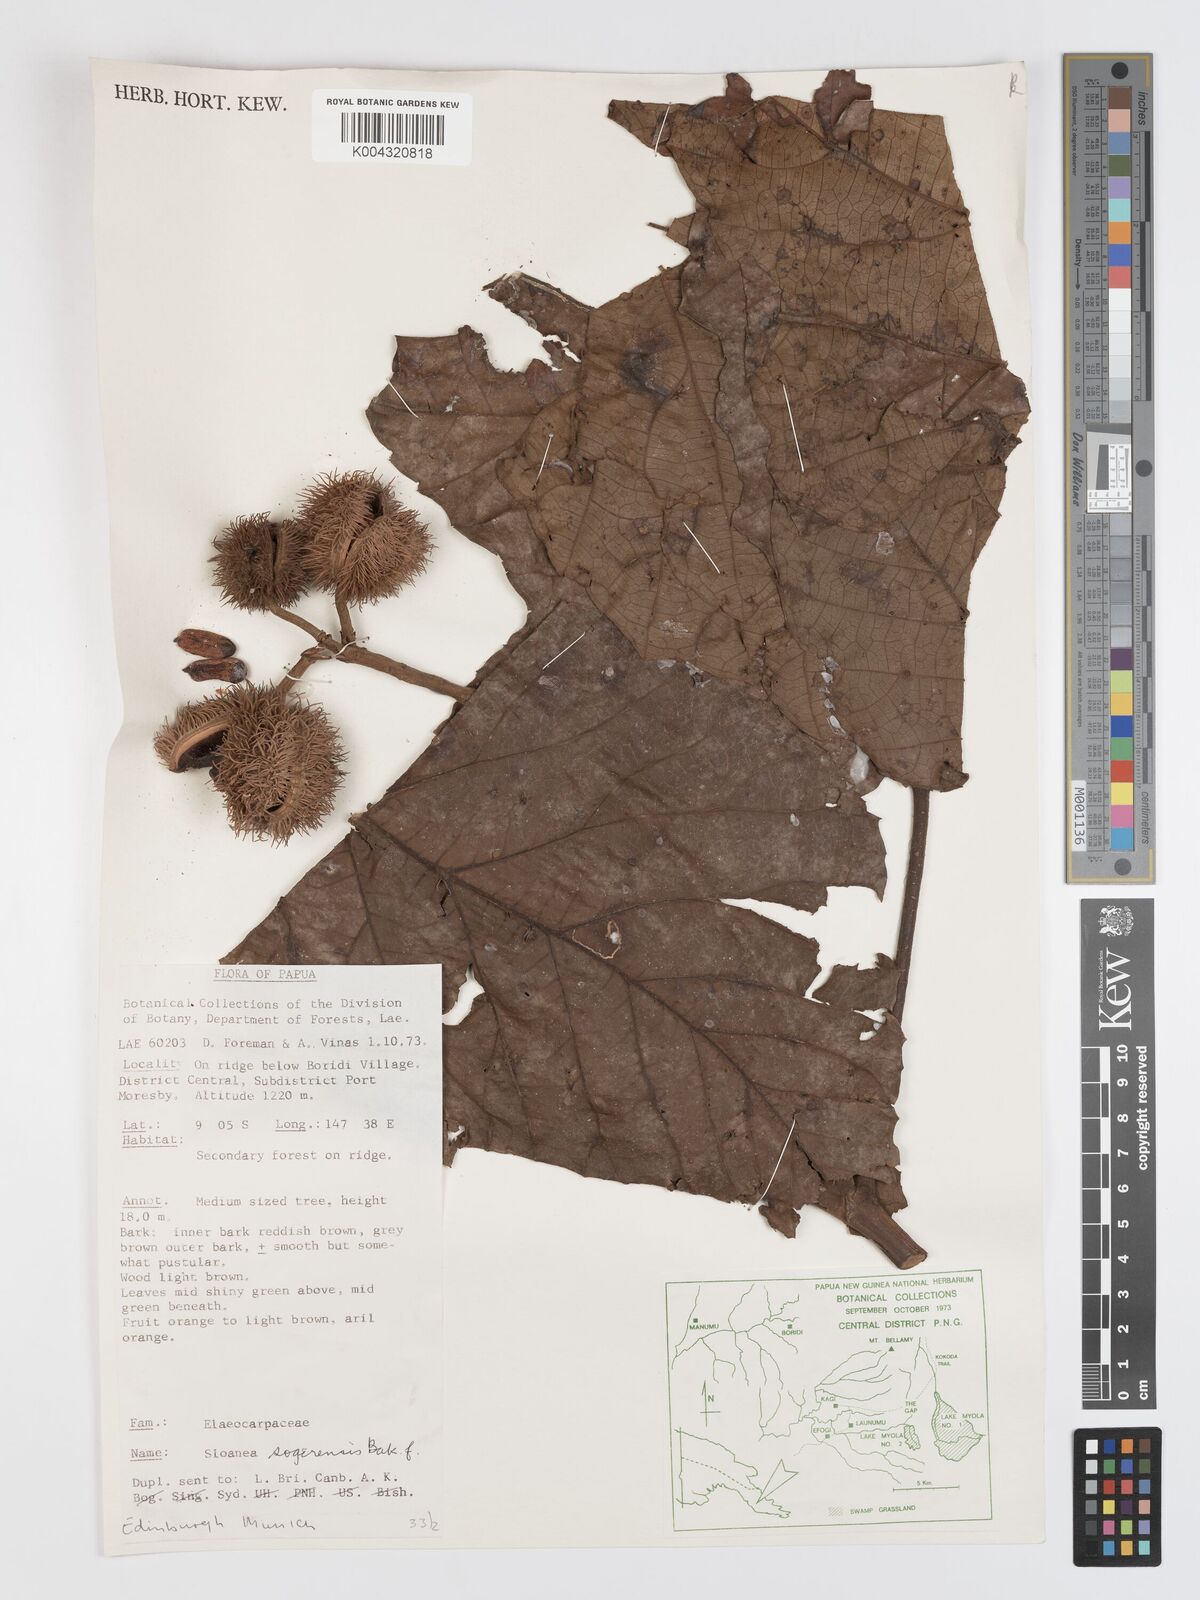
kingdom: Plantae
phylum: Tracheophyta
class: Magnoliopsida
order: Oxalidales
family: Elaeocarpaceae
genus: Sloanea
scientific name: Sloanea sogerensis
